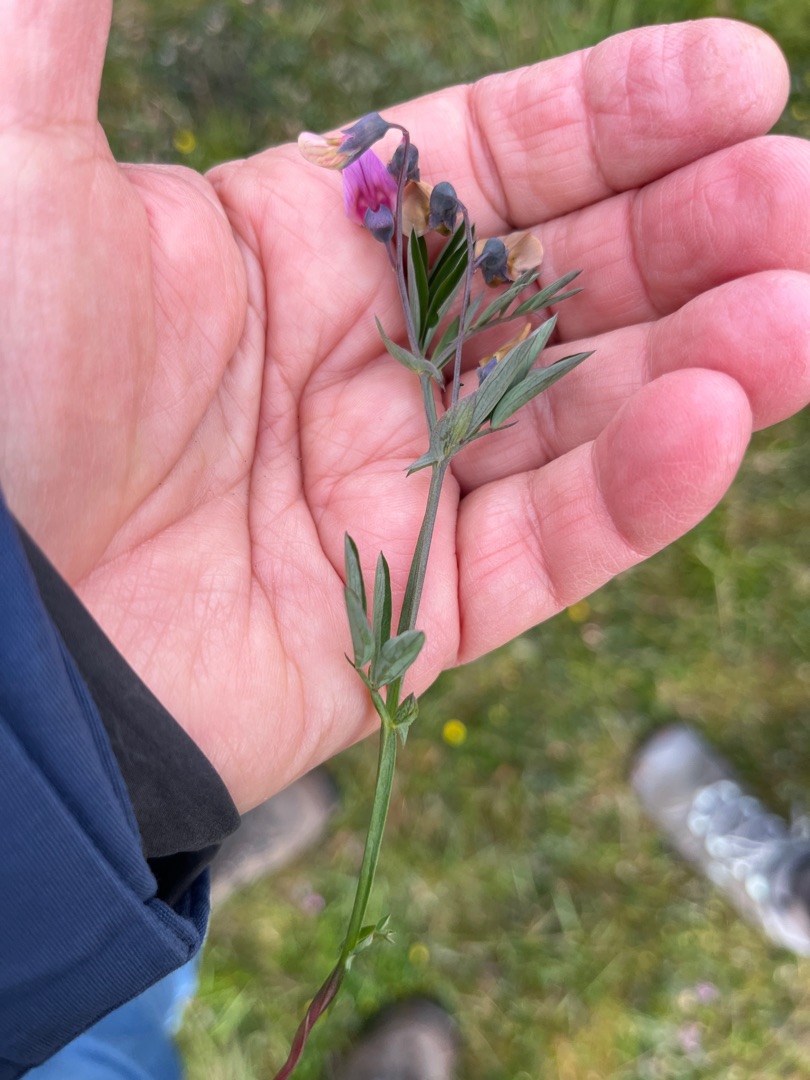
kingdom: Plantae
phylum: Tracheophyta
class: Magnoliopsida
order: Fabales
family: Fabaceae
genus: Lathyrus
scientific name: Lathyrus linifolius
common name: Krat-fladbælg
